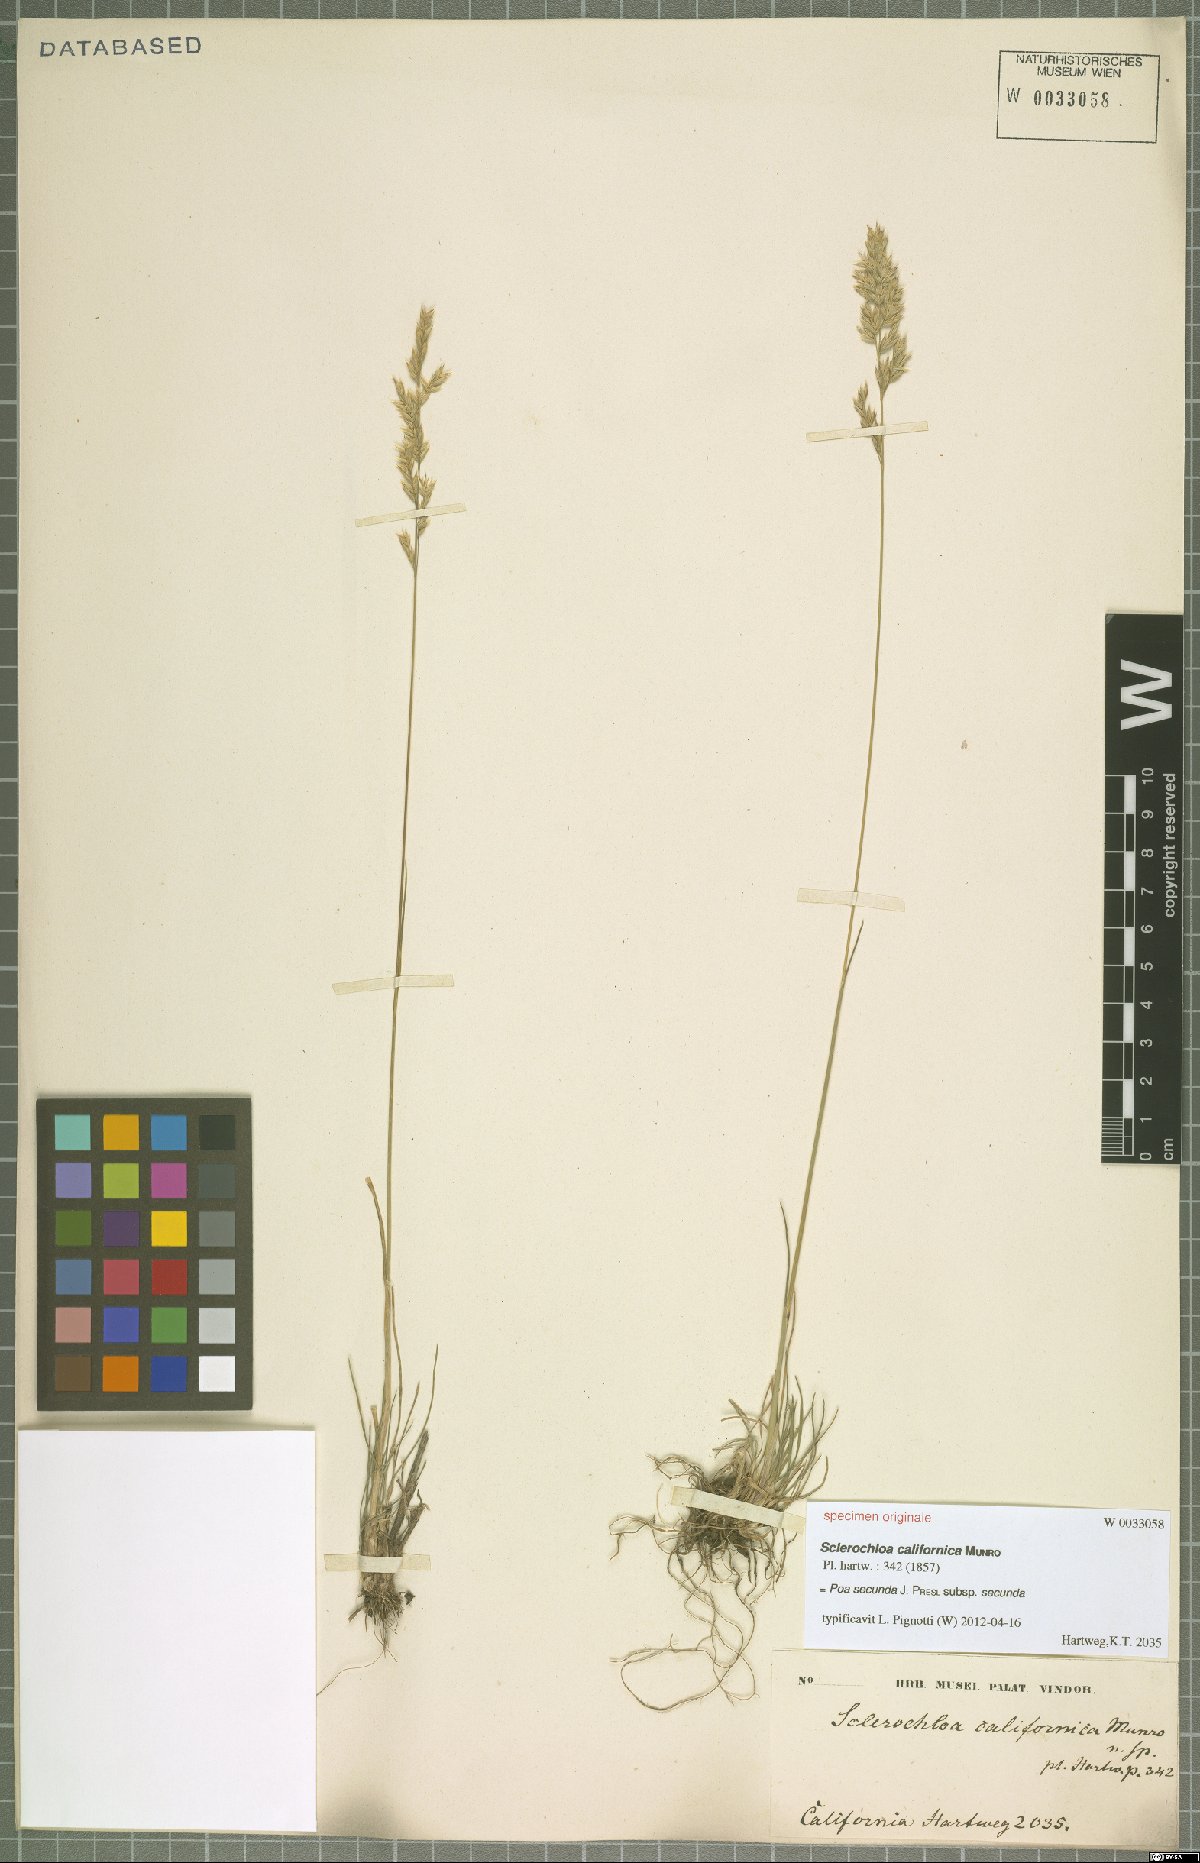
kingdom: Plantae
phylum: Tracheophyta
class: Liliopsida
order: Poales
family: Poaceae
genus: Poa
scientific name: Poa secunda
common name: Sandberg bluegrass
